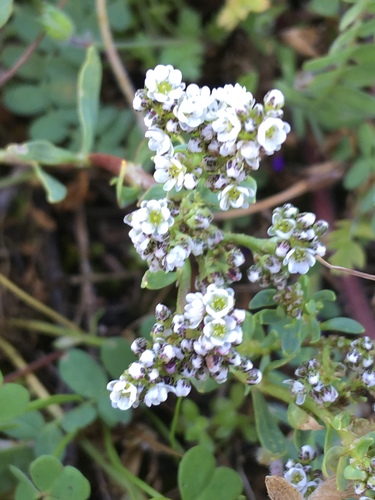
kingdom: Plantae
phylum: Tracheophyta
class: Magnoliopsida
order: Caryophyllales
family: Caryophyllaceae
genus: Corrigiola
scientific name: Corrigiola litoralis
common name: Strapwort
